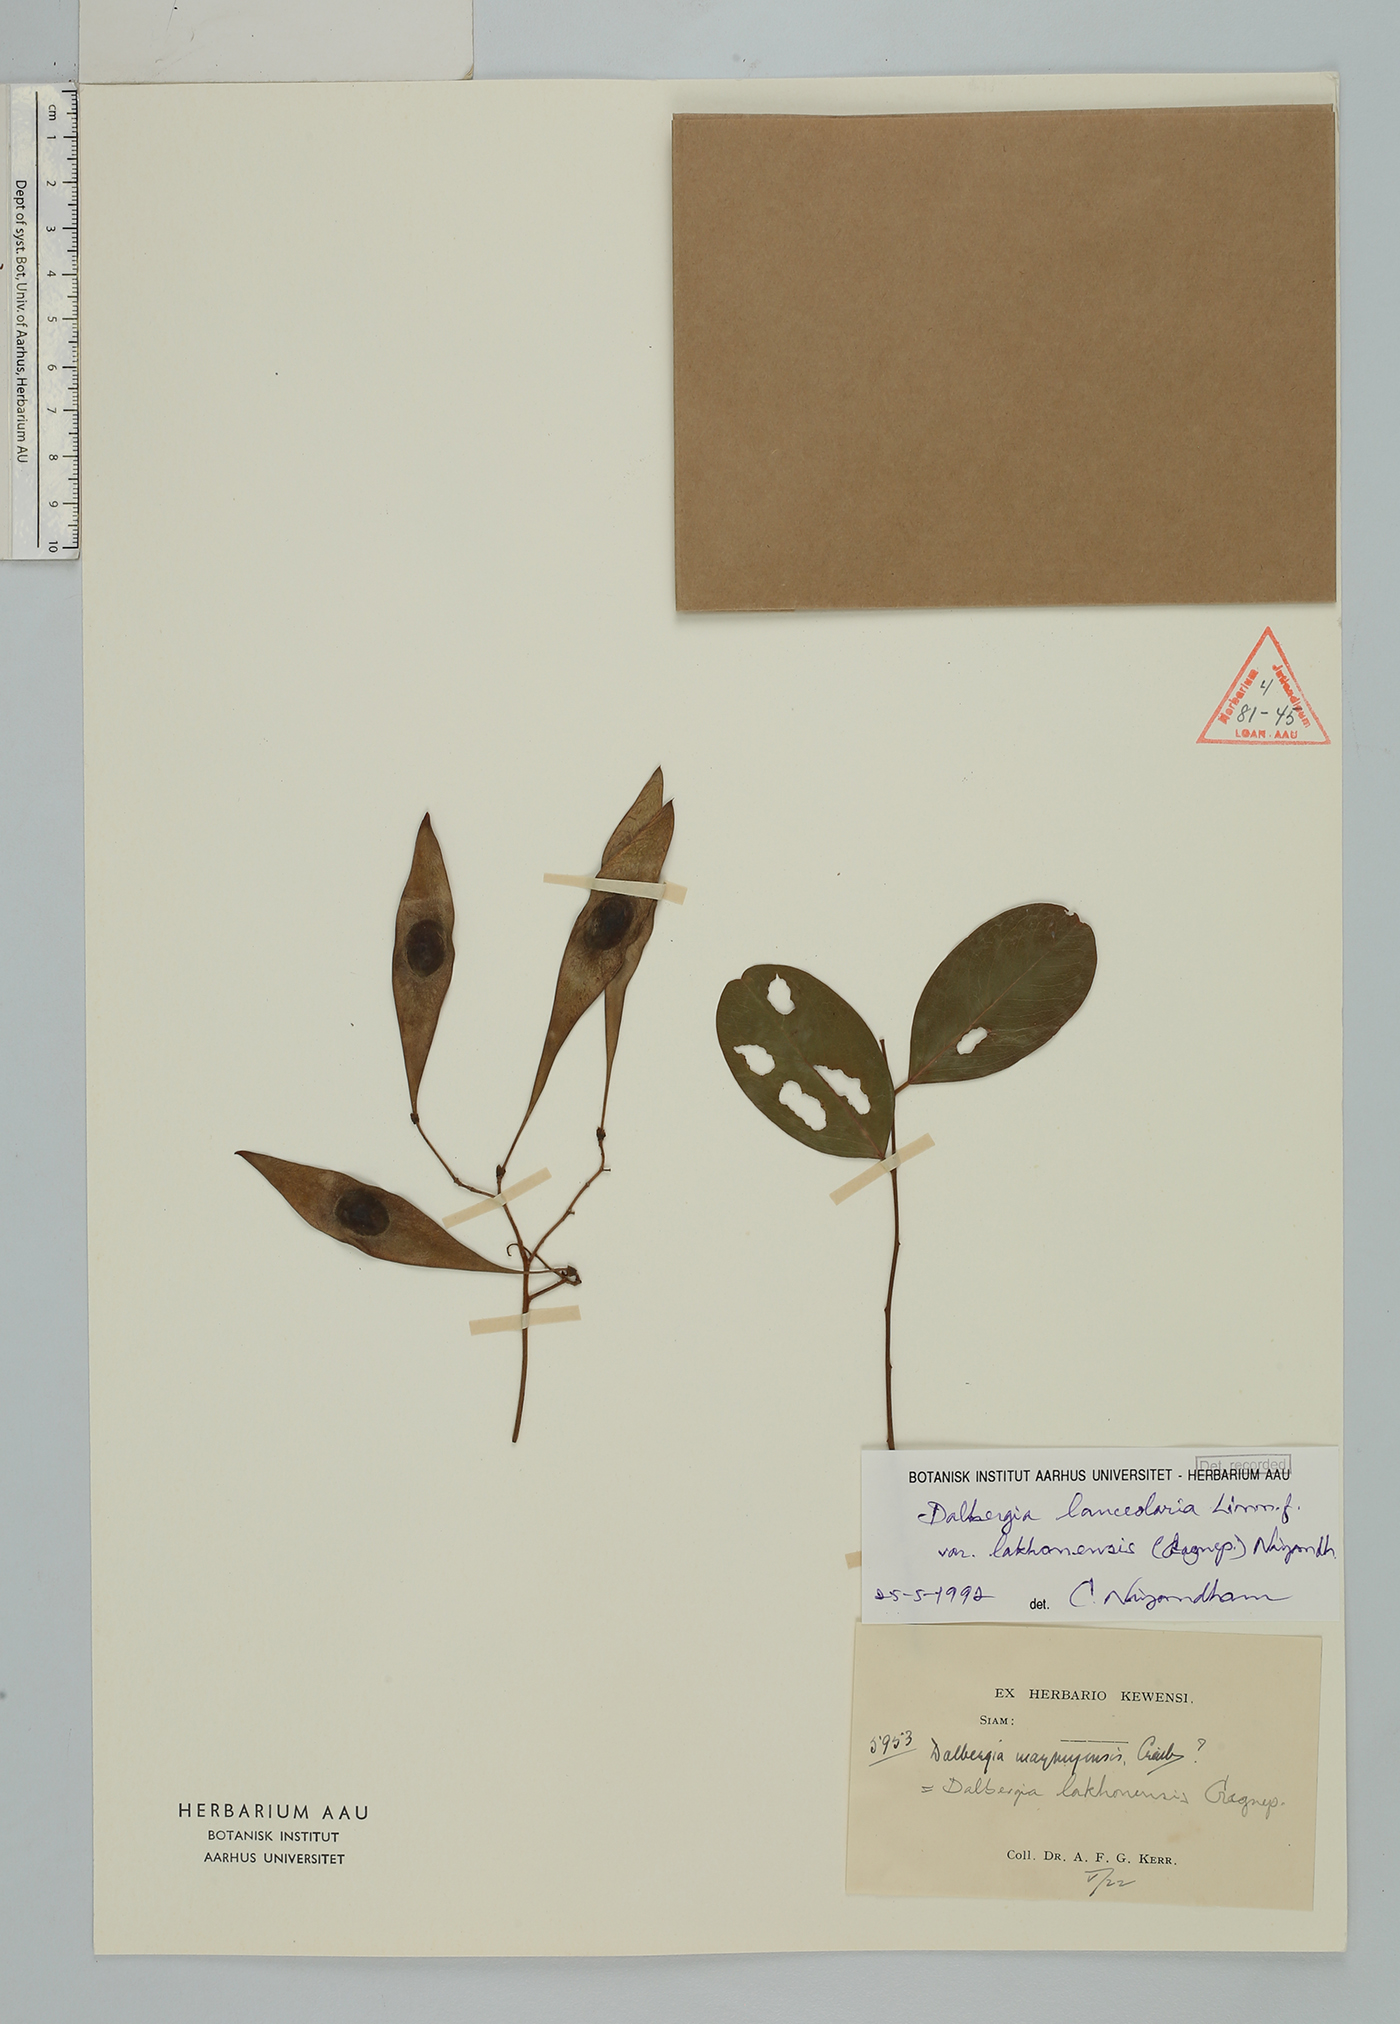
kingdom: Plantae
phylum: Tracheophyta
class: Magnoliopsida
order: Fabales
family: Fabaceae
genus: Dalbergia
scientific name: Dalbergia lanceolaria
